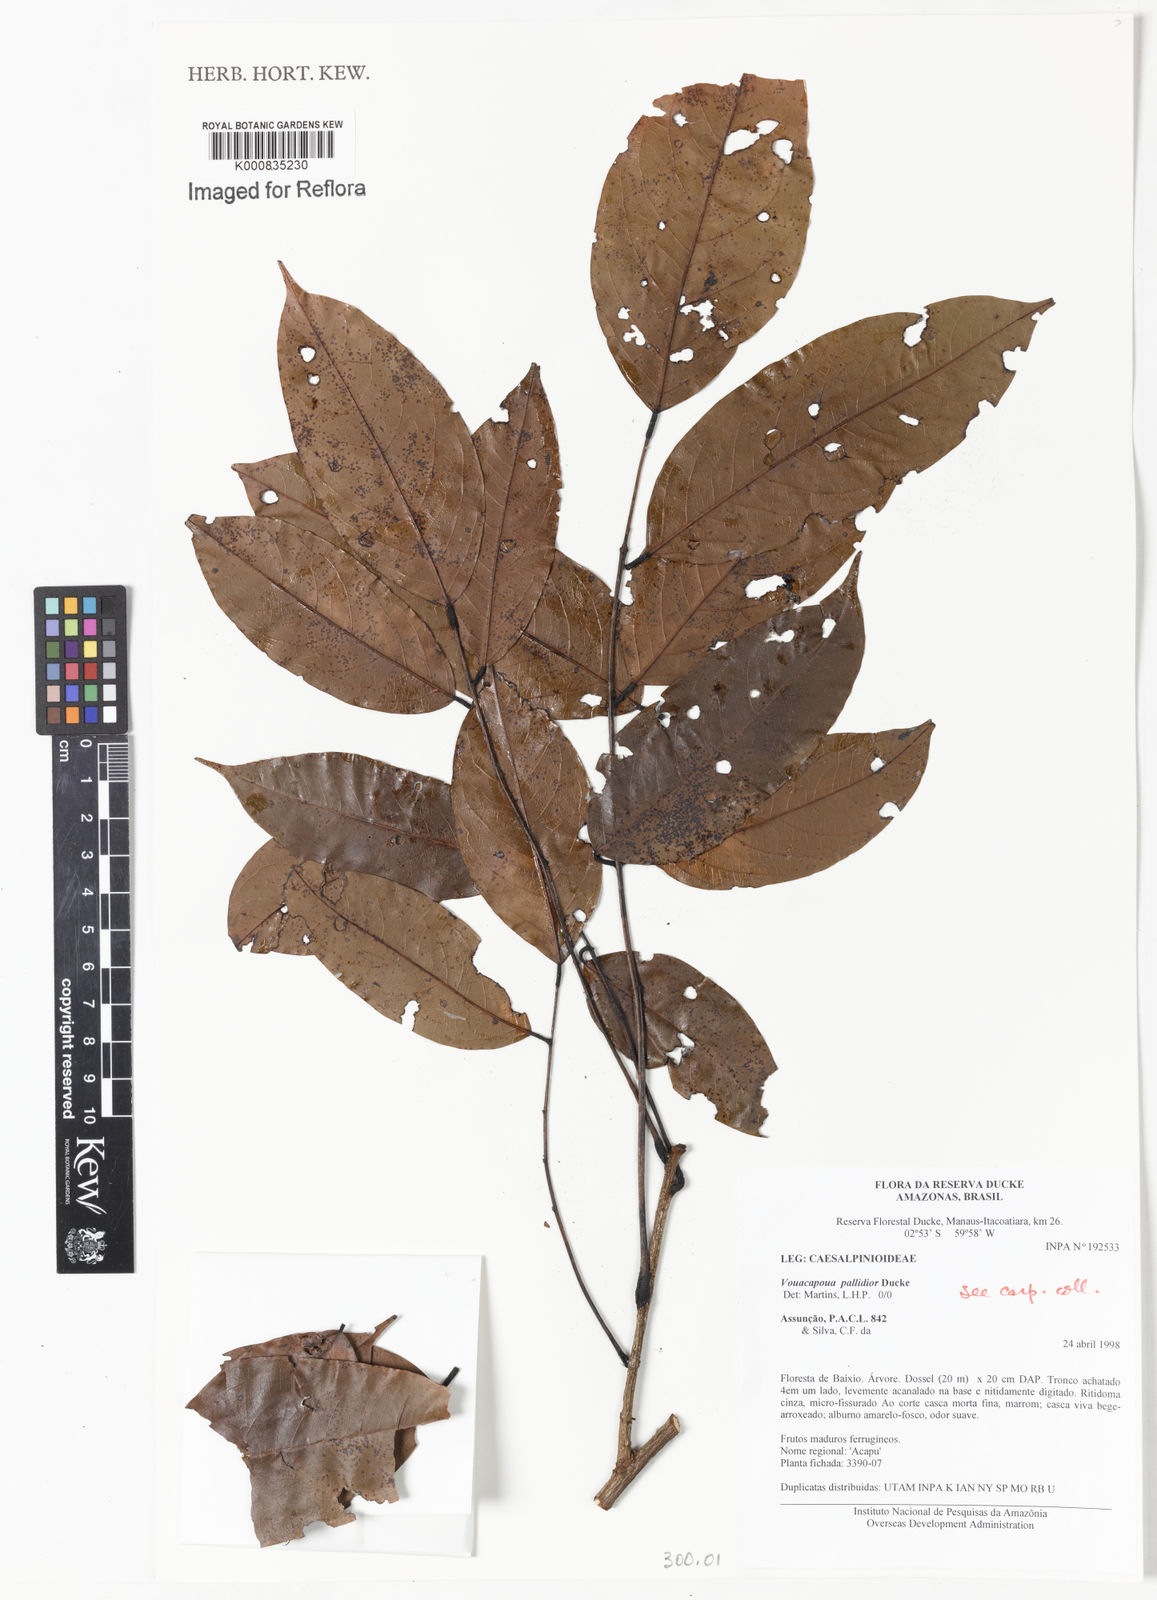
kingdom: Plantae
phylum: Tracheophyta
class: Magnoliopsida
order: Fabales
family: Fabaceae
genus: Vouacapoua
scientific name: Vouacapoua pallidior
